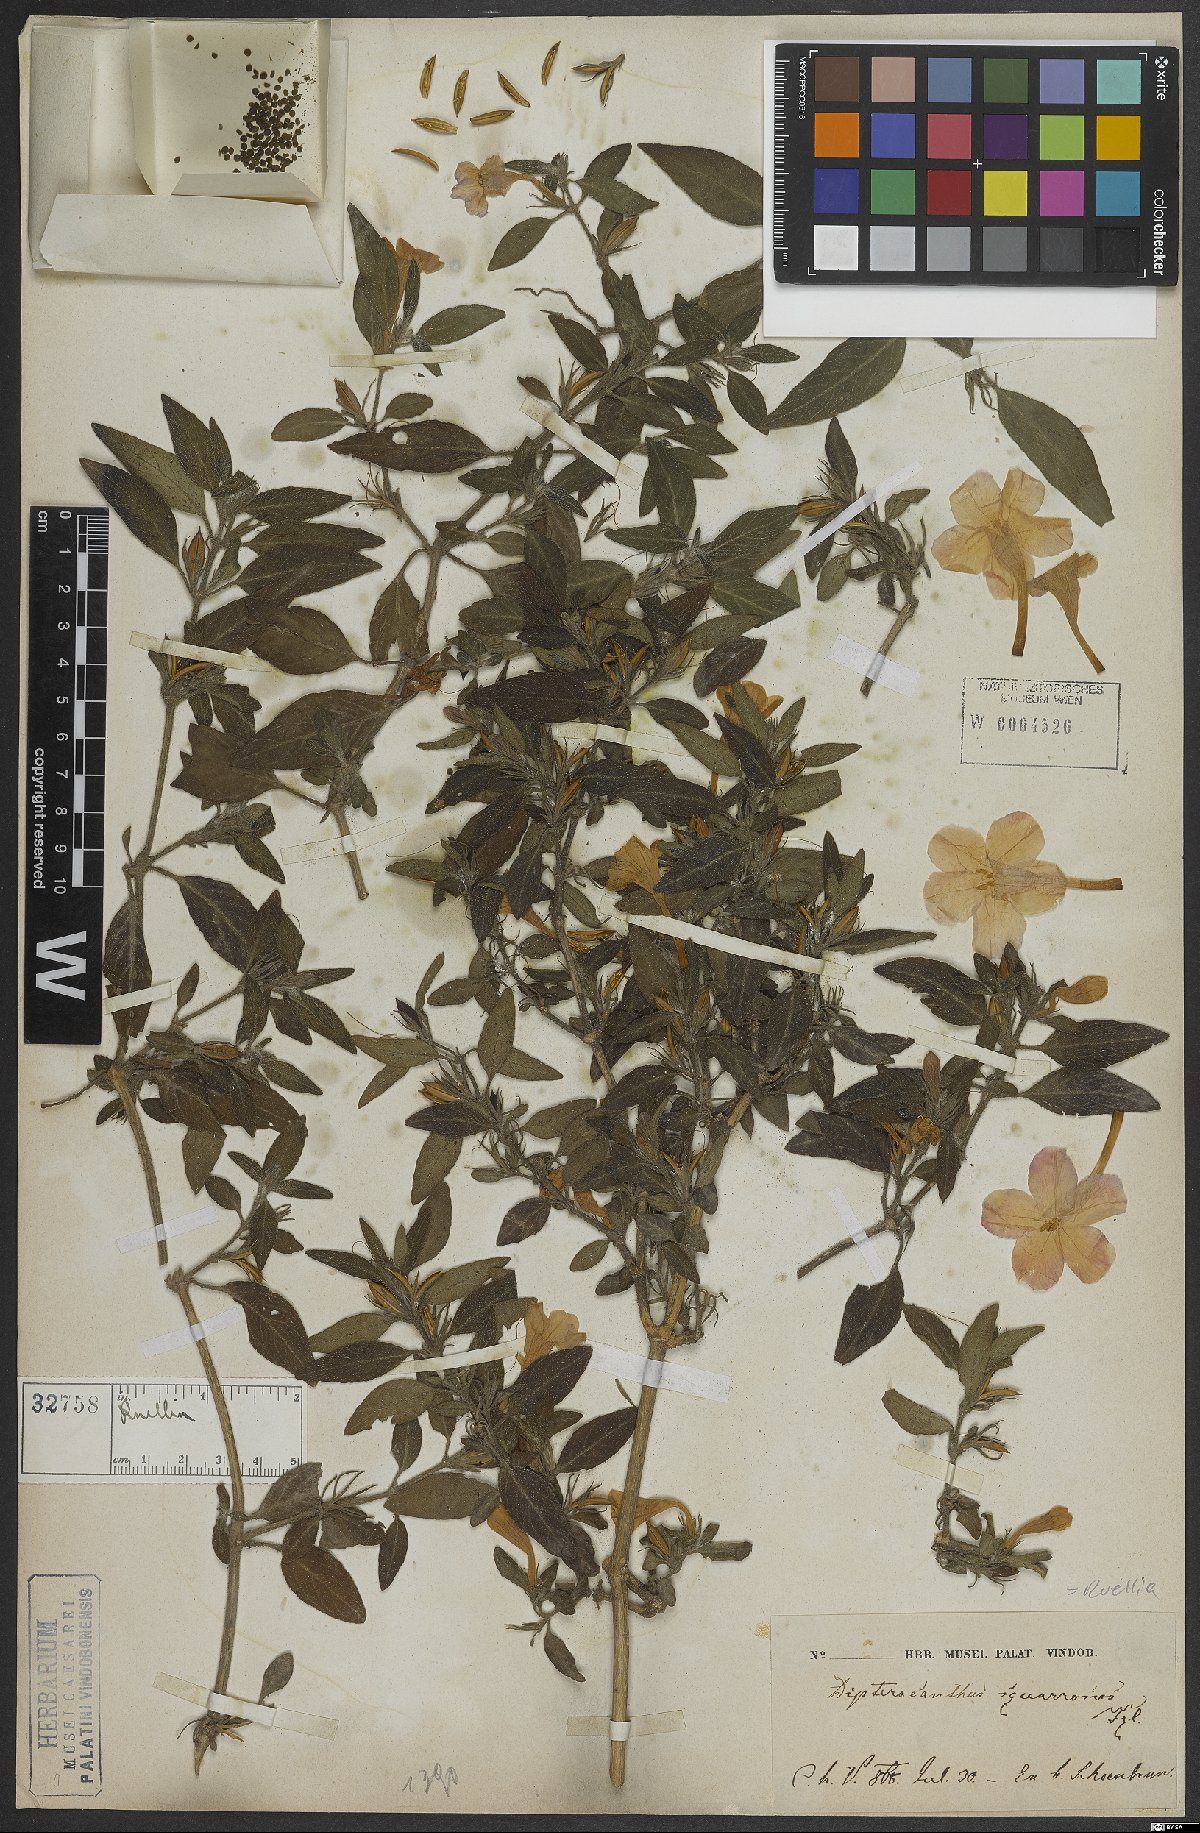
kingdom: Plantae
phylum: Tracheophyta
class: Magnoliopsida
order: Lamiales
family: Acanthaceae
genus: Ruellia
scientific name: Ruellia longepetiolata
